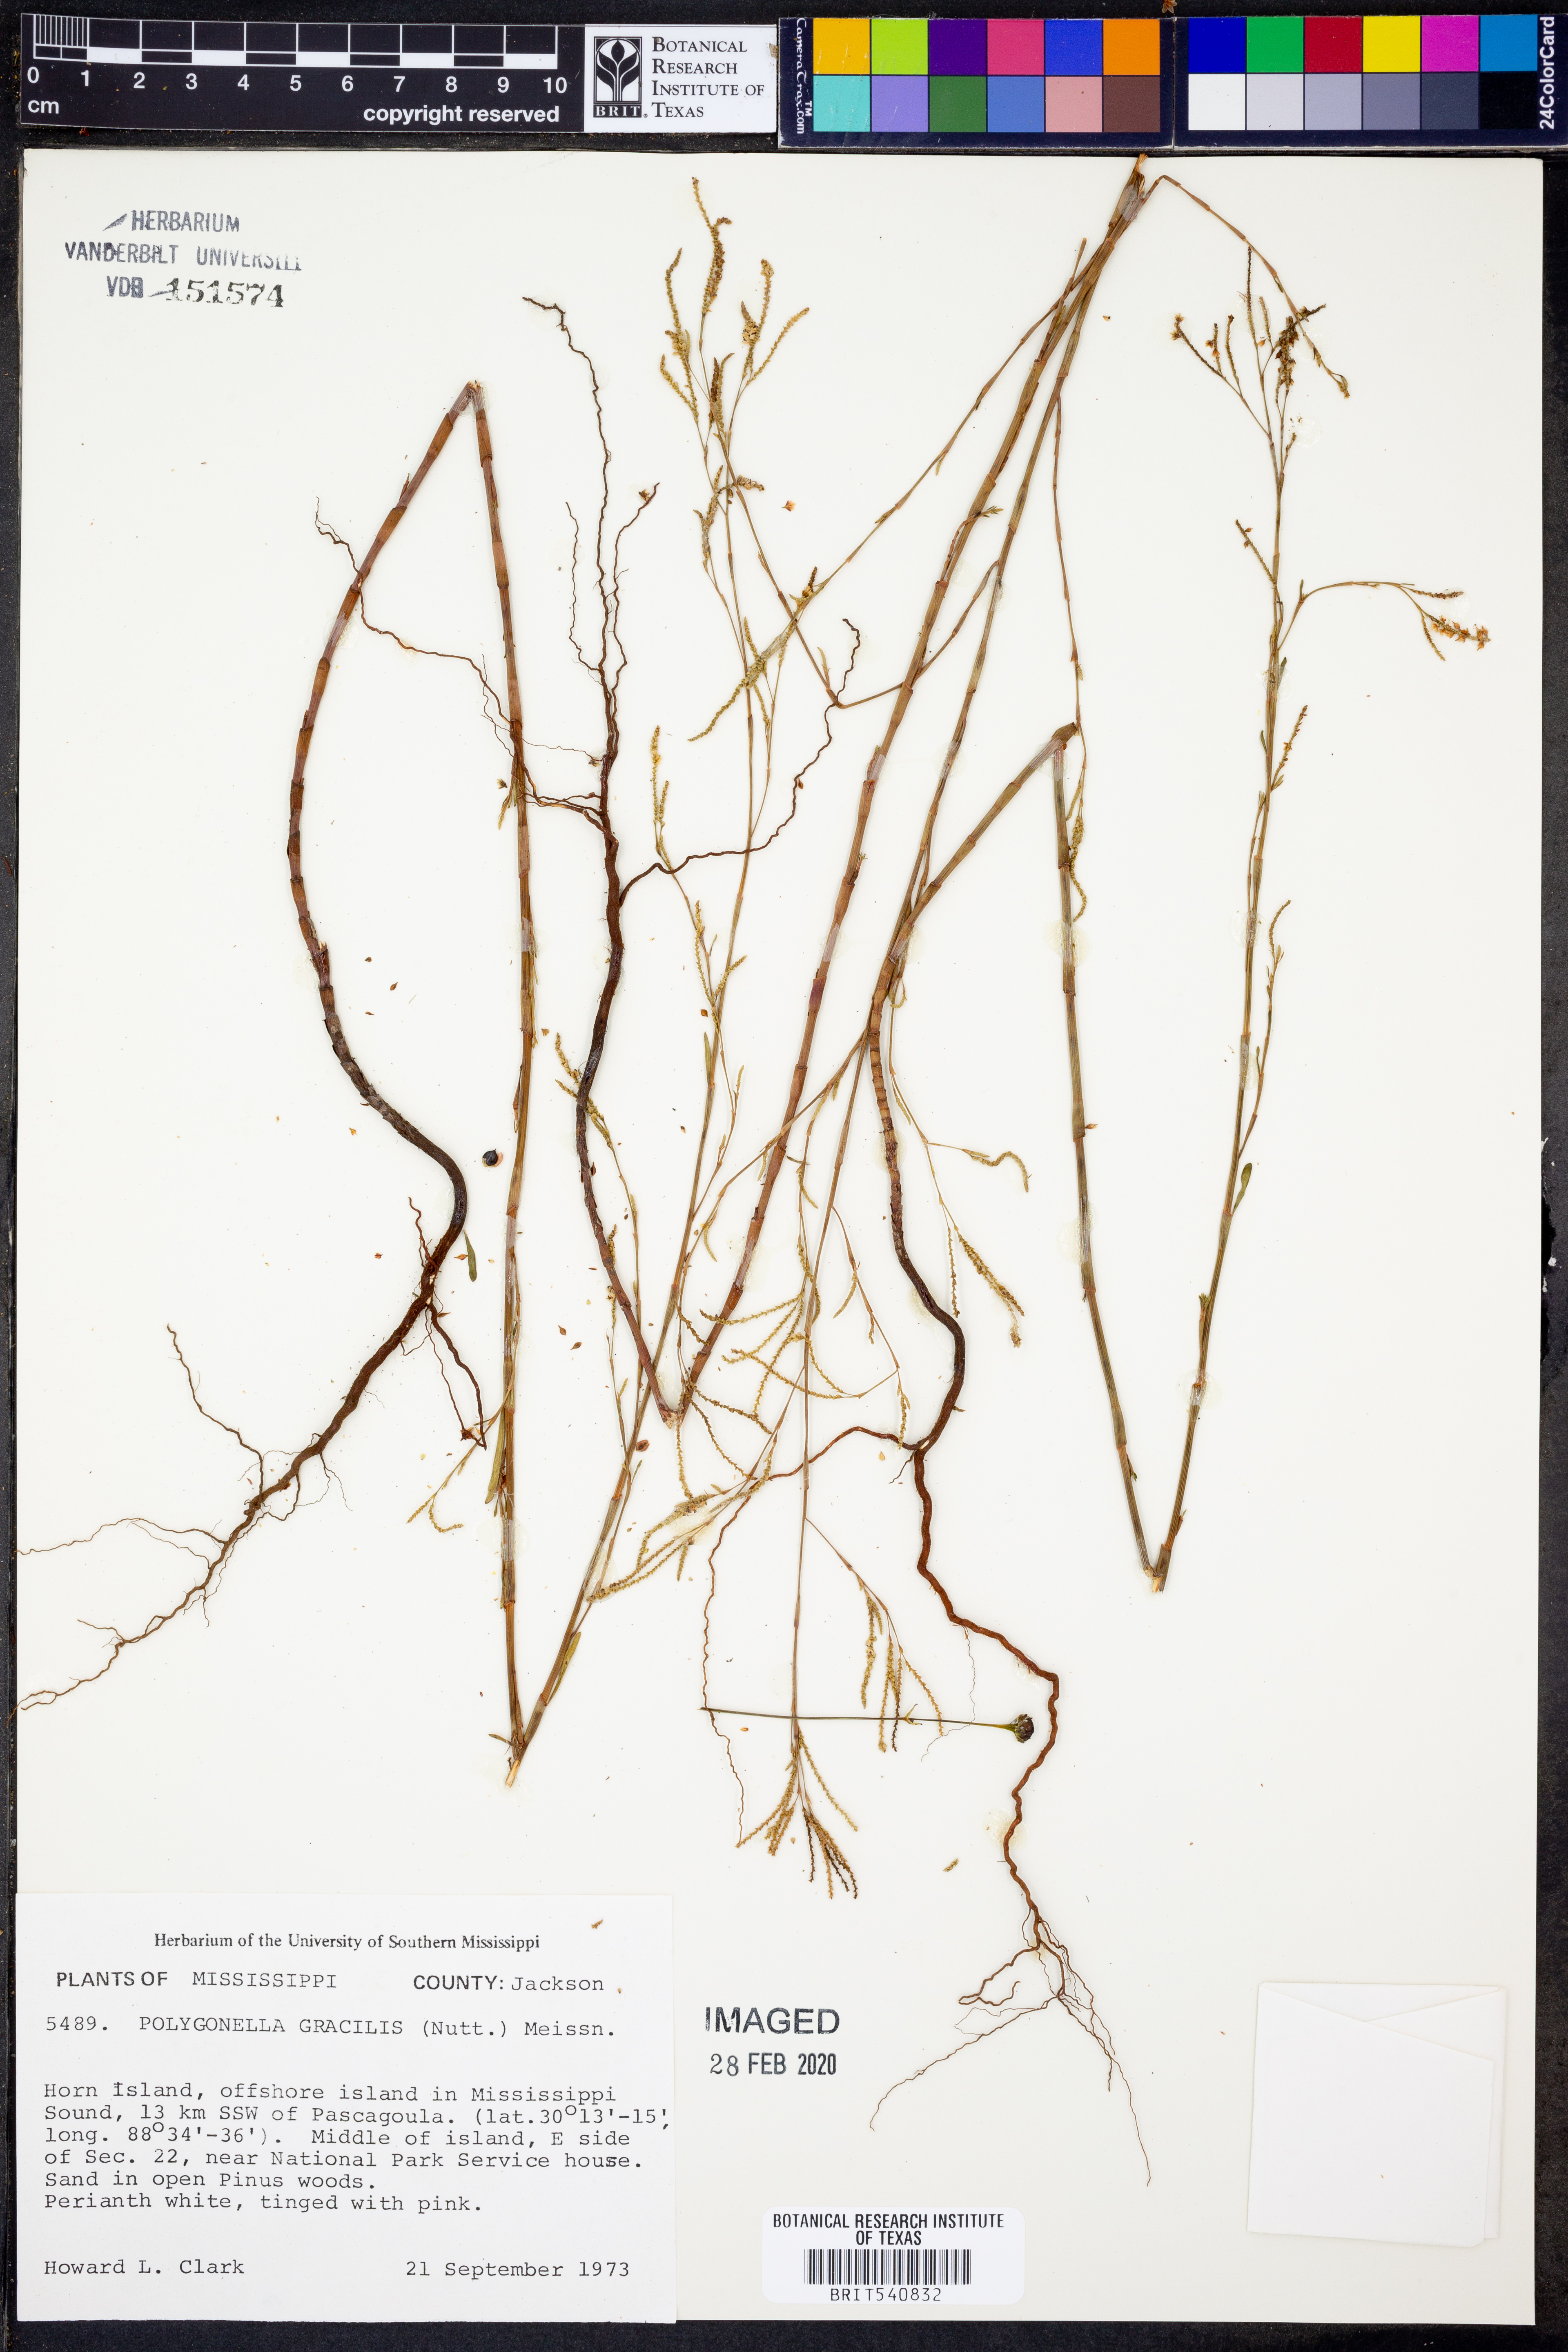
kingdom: Plantae
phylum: Tracheophyta
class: Magnoliopsida
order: Caryophyllales
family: Polygonaceae
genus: Polygonella
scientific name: Polygonella gracilis
